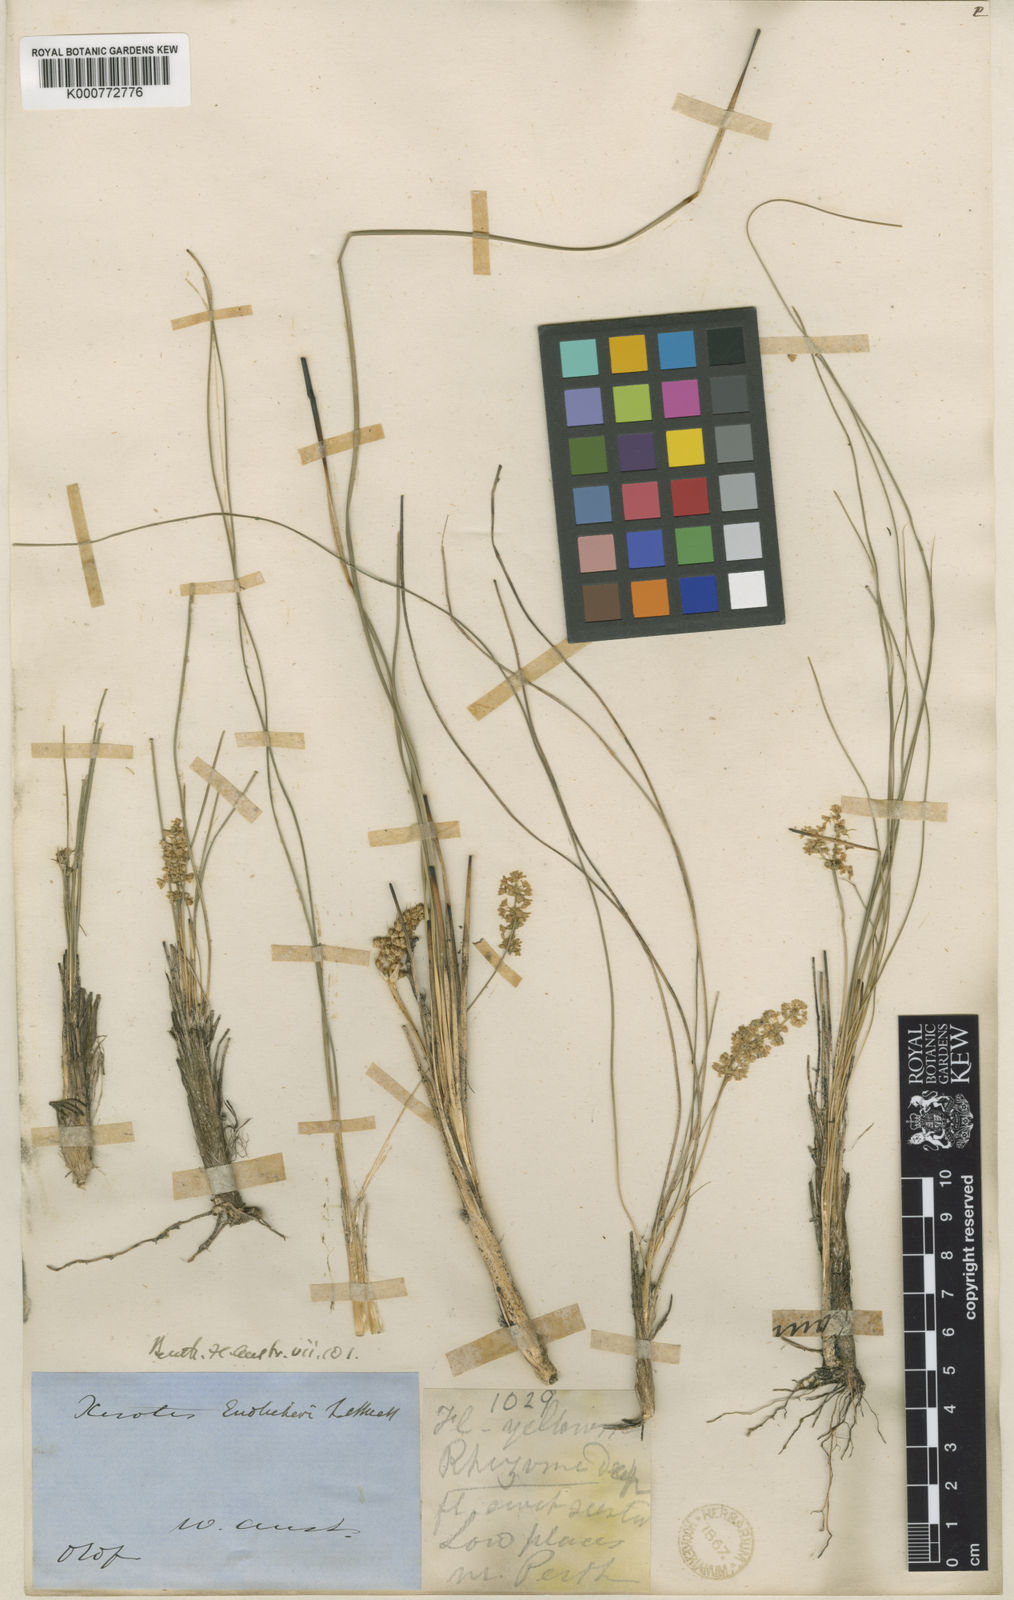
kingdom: Plantae
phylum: Tracheophyta
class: Liliopsida
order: Asparagales
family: Asparagaceae
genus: Lomandra
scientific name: Lomandra odora
